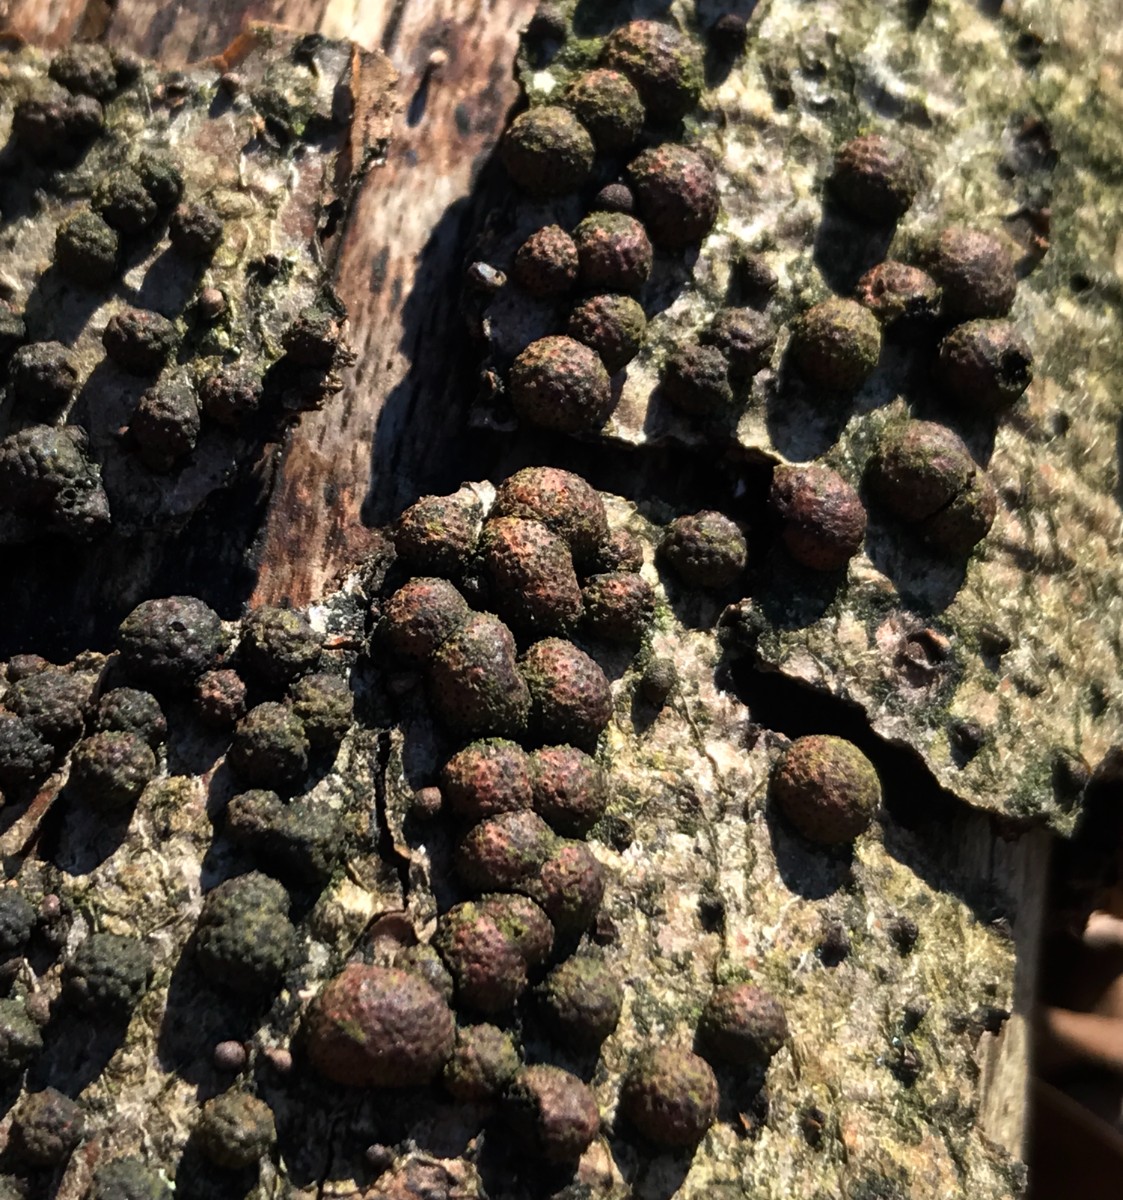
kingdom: Fungi
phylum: Ascomycota
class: Sordariomycetes
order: Xylariales
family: Hypoxylaceae
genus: Hypoxylon
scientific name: Hypoxylon fragiforme
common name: kuljordbær
